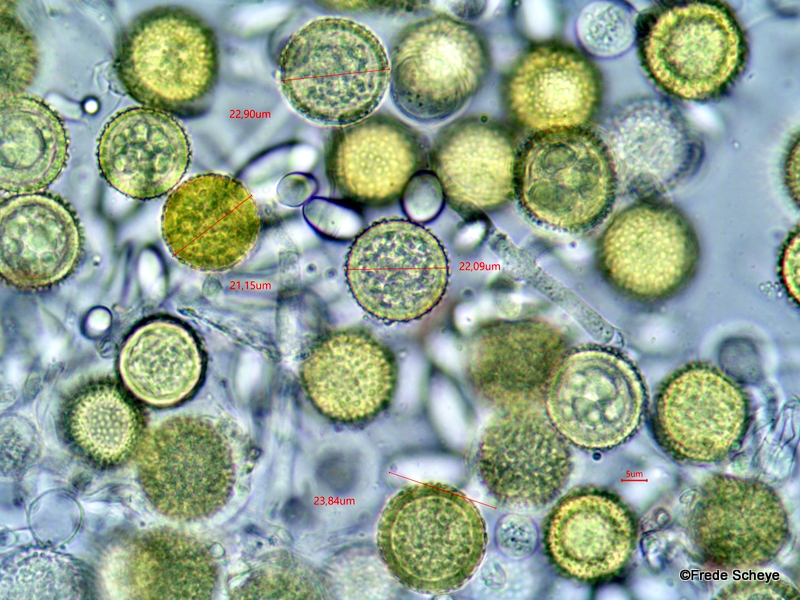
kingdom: Fungi
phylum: Ascomycota
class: Sordariomycetes
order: Hypocreales
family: Hypocreaceae
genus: Hypomyces
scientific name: Hypomyces chrysospermus
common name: gulskimmel-snylteskorpe
